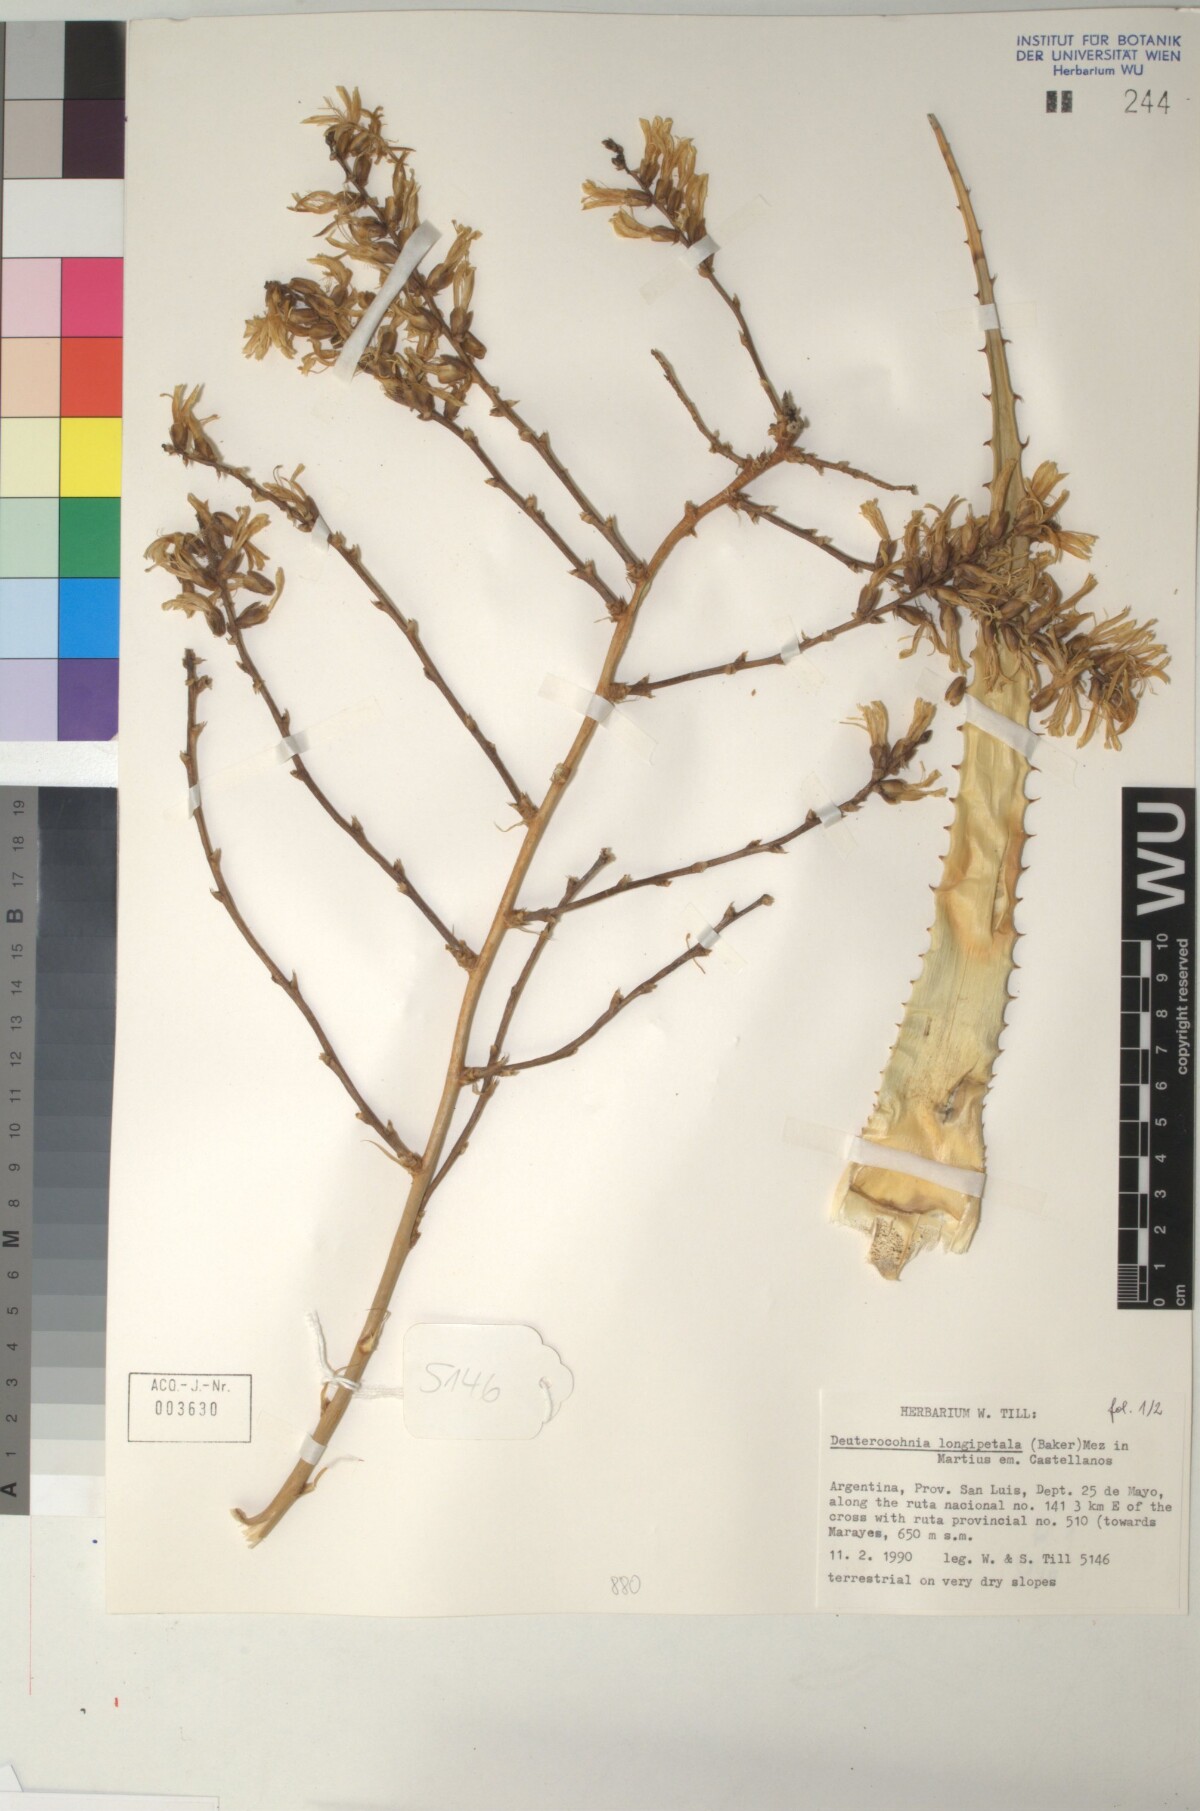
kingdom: Plantae
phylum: Tracheophyta
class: Liliopsida
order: Poales
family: Bromeliaceae
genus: Deuterocohnia
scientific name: Deuterocohnia longipetala
